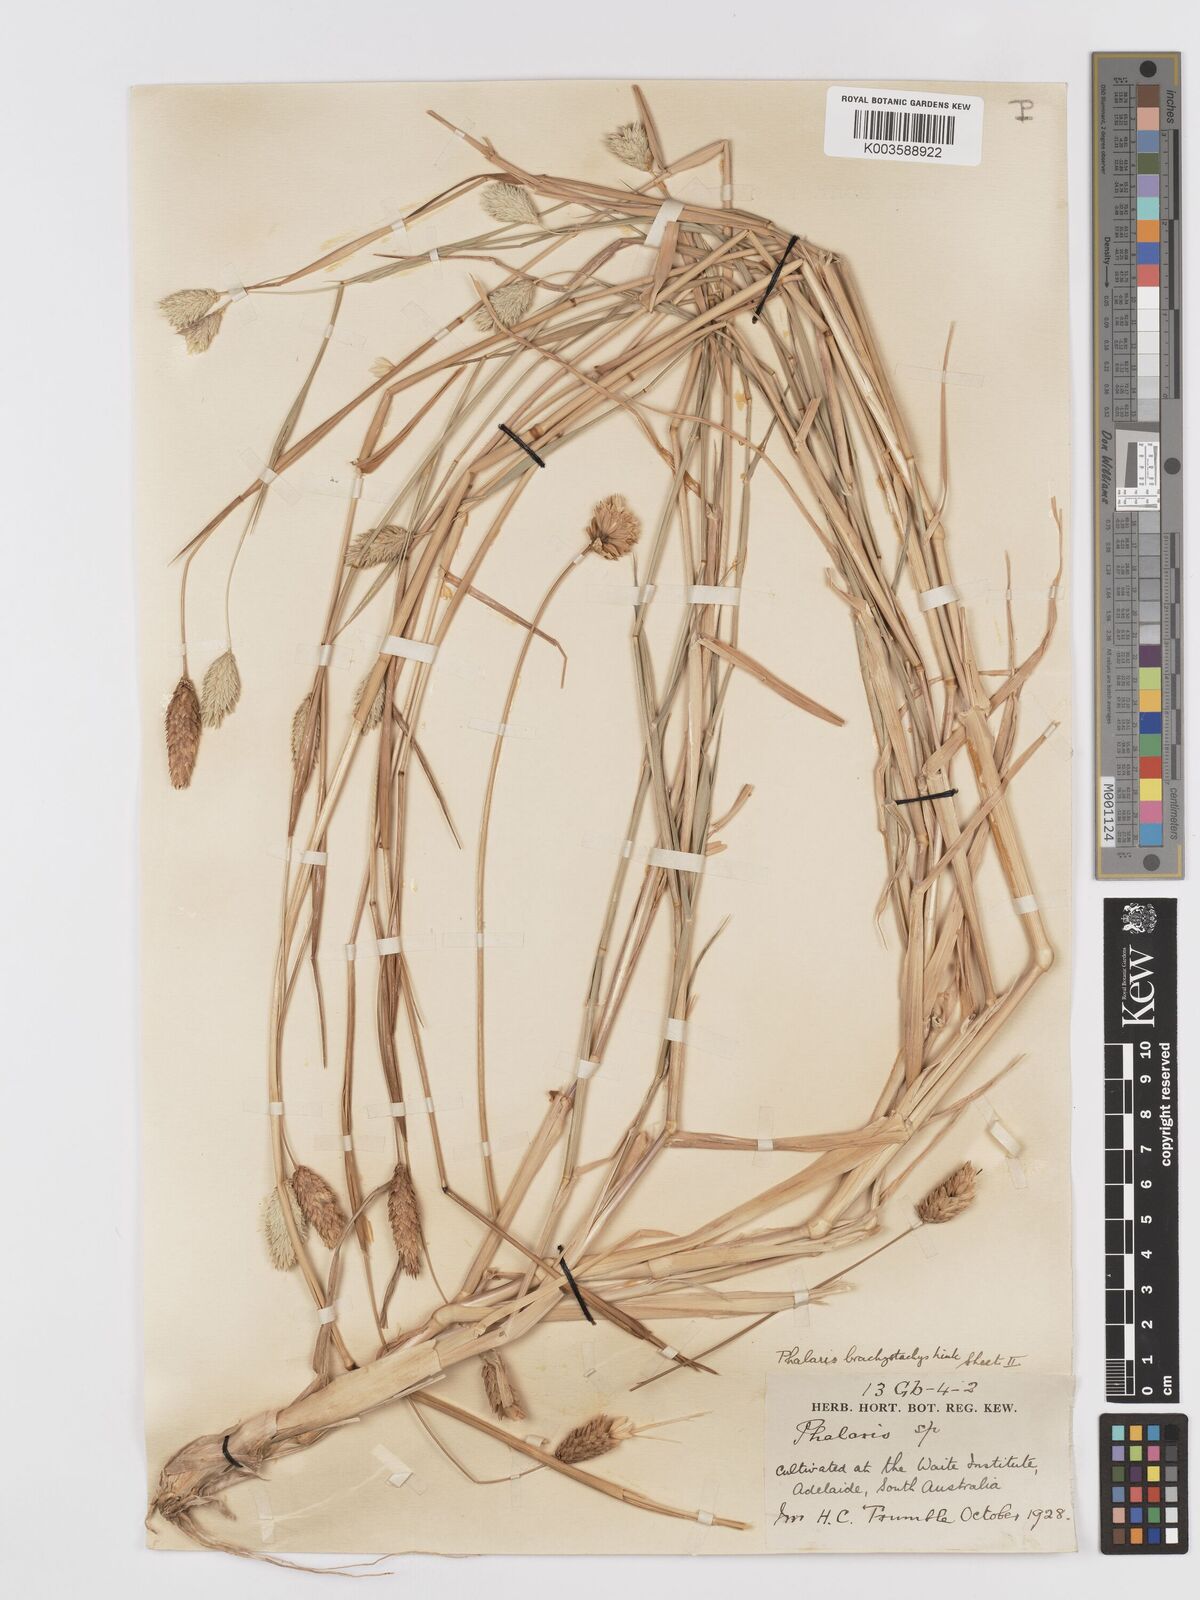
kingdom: Plantae
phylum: Tracheophyta
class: Liliopsida
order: Poales
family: Poaceae
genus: Phalaris
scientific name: Phalaris brachystachys
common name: Confused canary-grass
